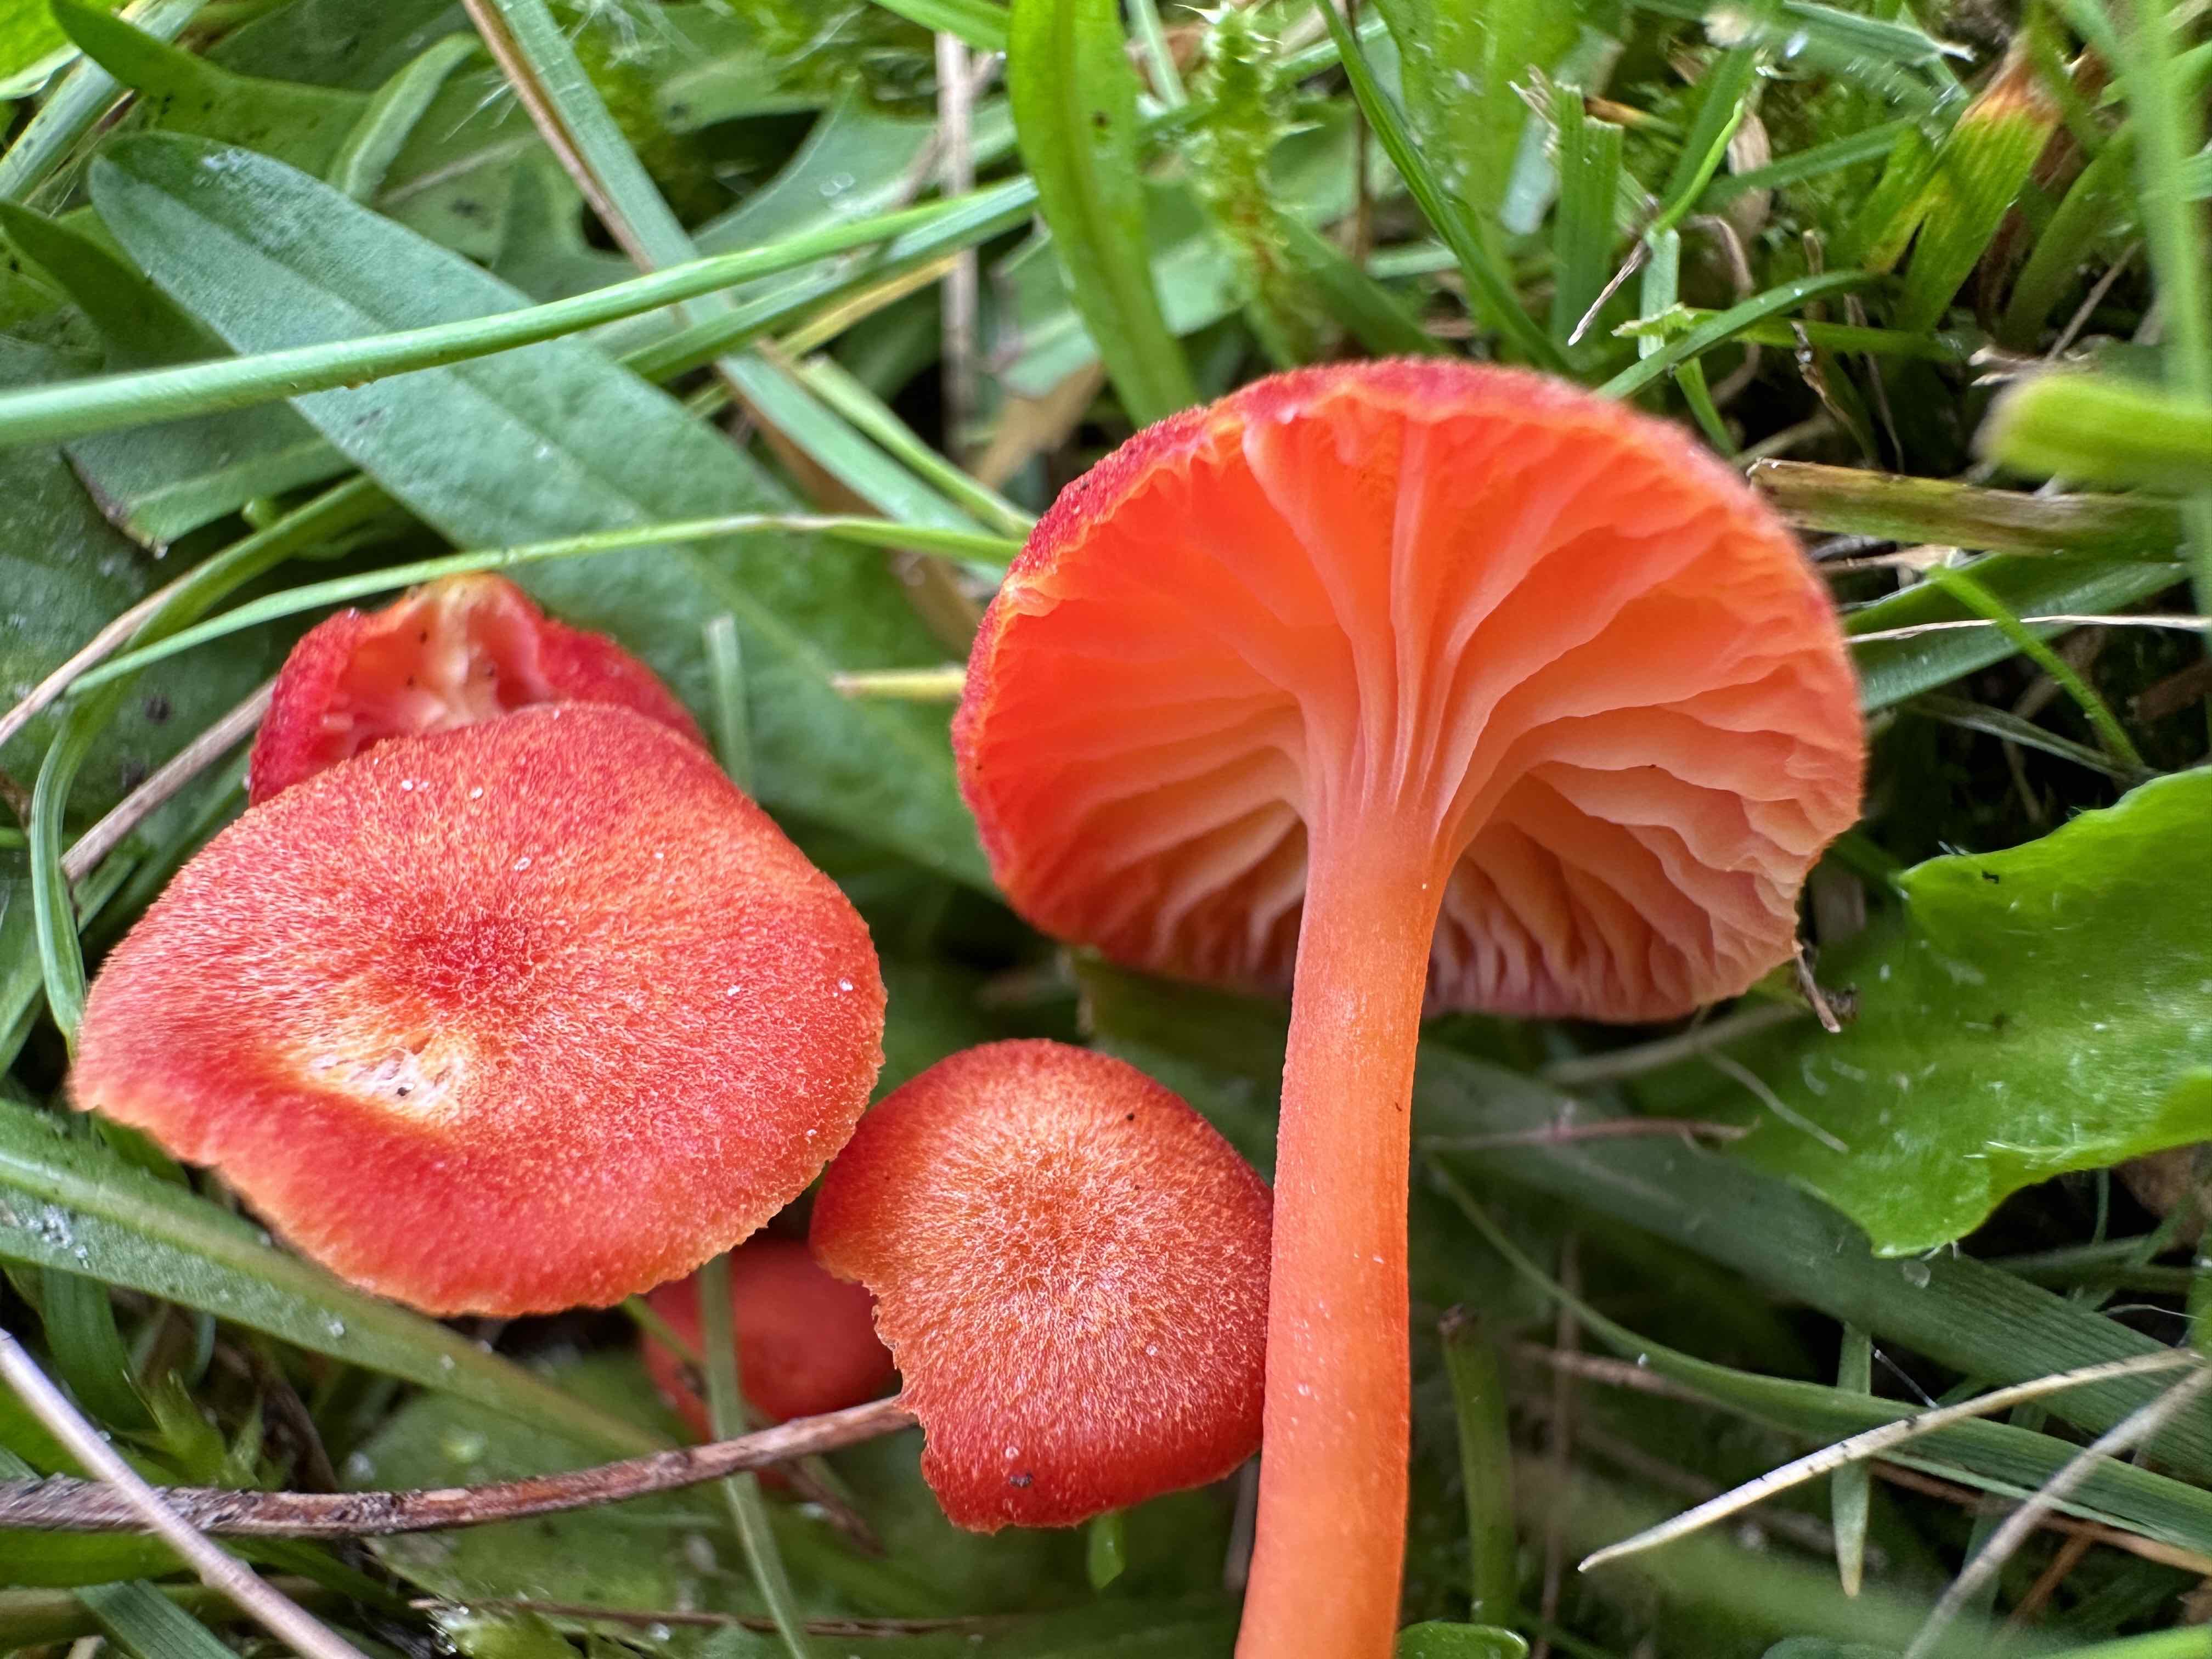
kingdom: Fungi
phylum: Basidiomycota
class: Agaricomycetes
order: Agaricales
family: Hygrophoraceae
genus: Hygrocybe
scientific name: Hygrocybe helobia
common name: hvidløgs-vokshat
